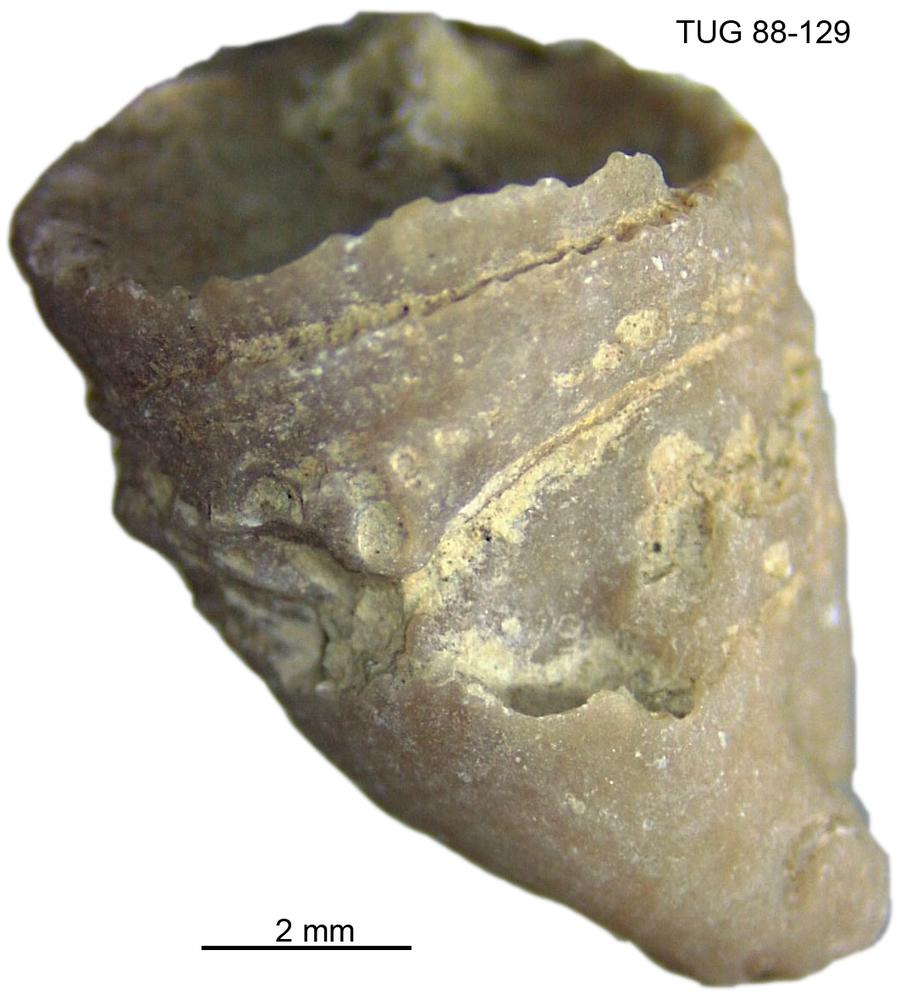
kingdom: Animalia
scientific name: Animalia
